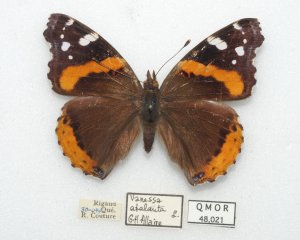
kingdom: Animalia
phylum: Arthropoda
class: Insecta
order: Lepidoptera
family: Nymphalidae
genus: Vanessa
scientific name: Vanessa atalanta
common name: Red Admiral
